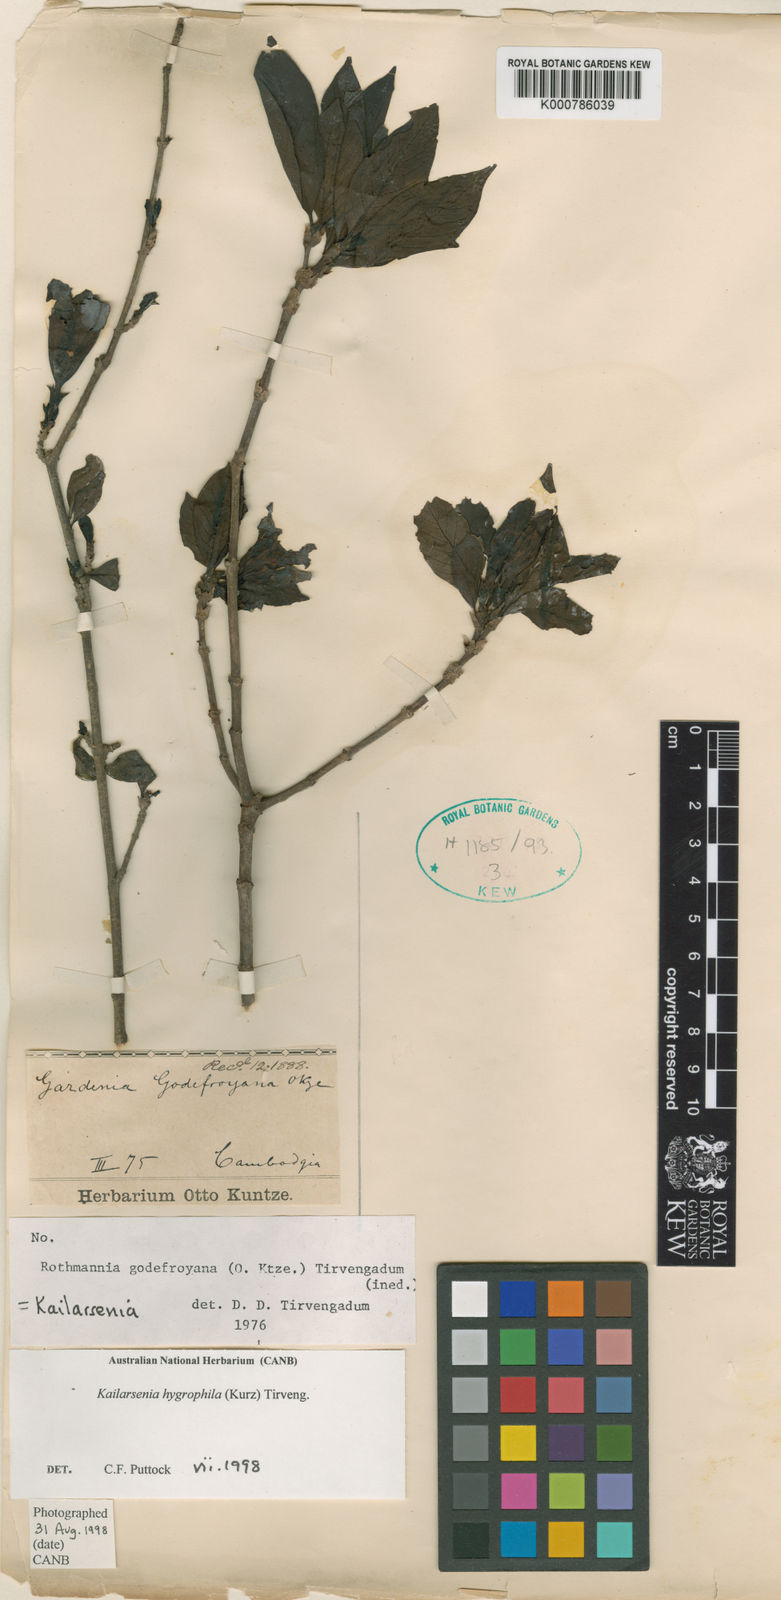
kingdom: Plantae
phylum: Tracheophyta
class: Magnoliopsida
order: Gentianales
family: Rubiaceae
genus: Kailarsenia
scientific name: Kailarsenia godefroyana
